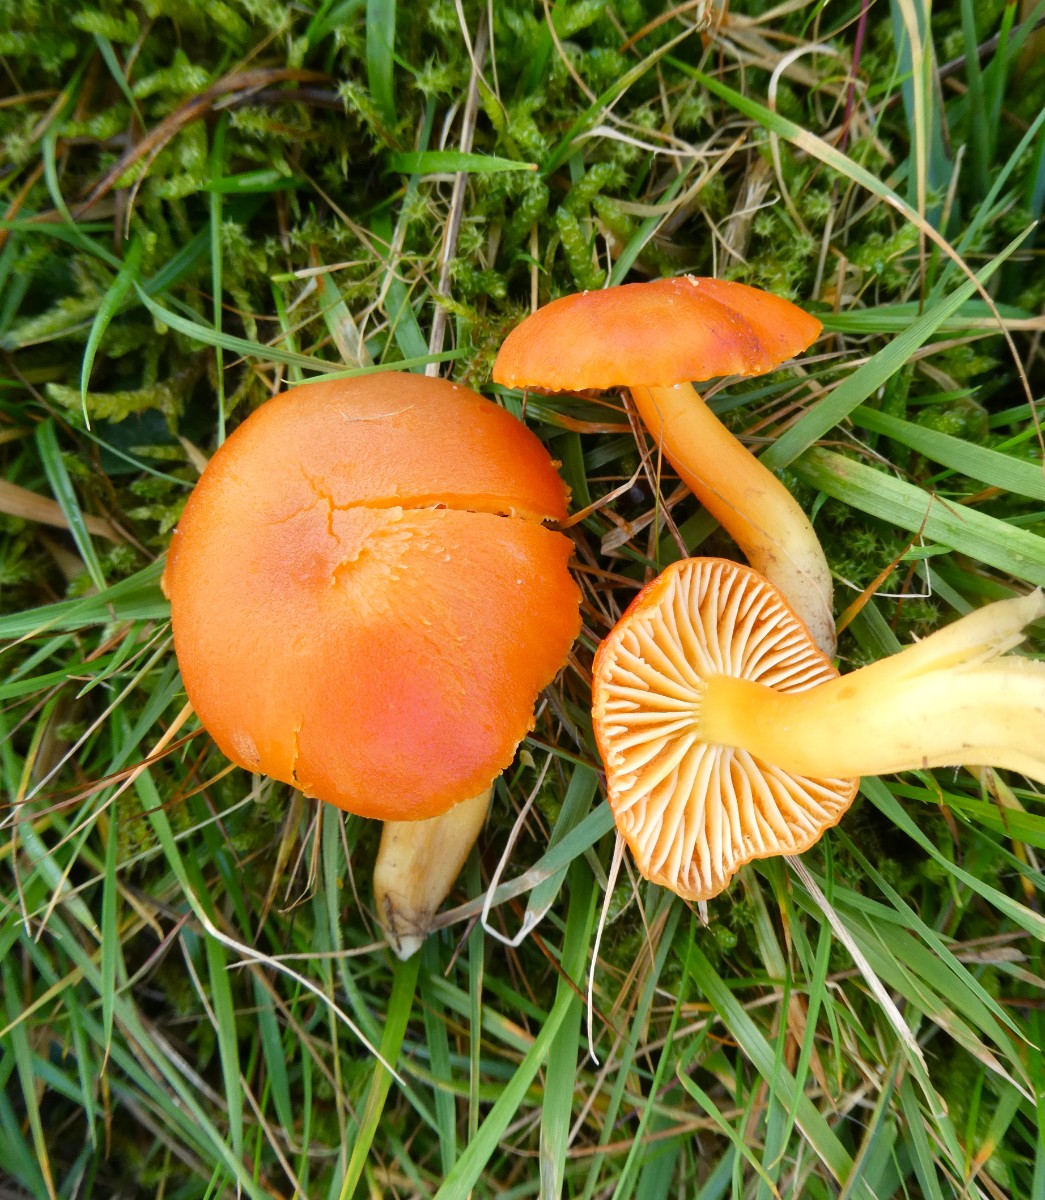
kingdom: Fungi
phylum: Basidiomycota
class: Agaricomycetes
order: Agaricales
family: Hygrophoraceae
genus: Hygrocybe
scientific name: Hygrocybe reidii
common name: honning-vokshat
